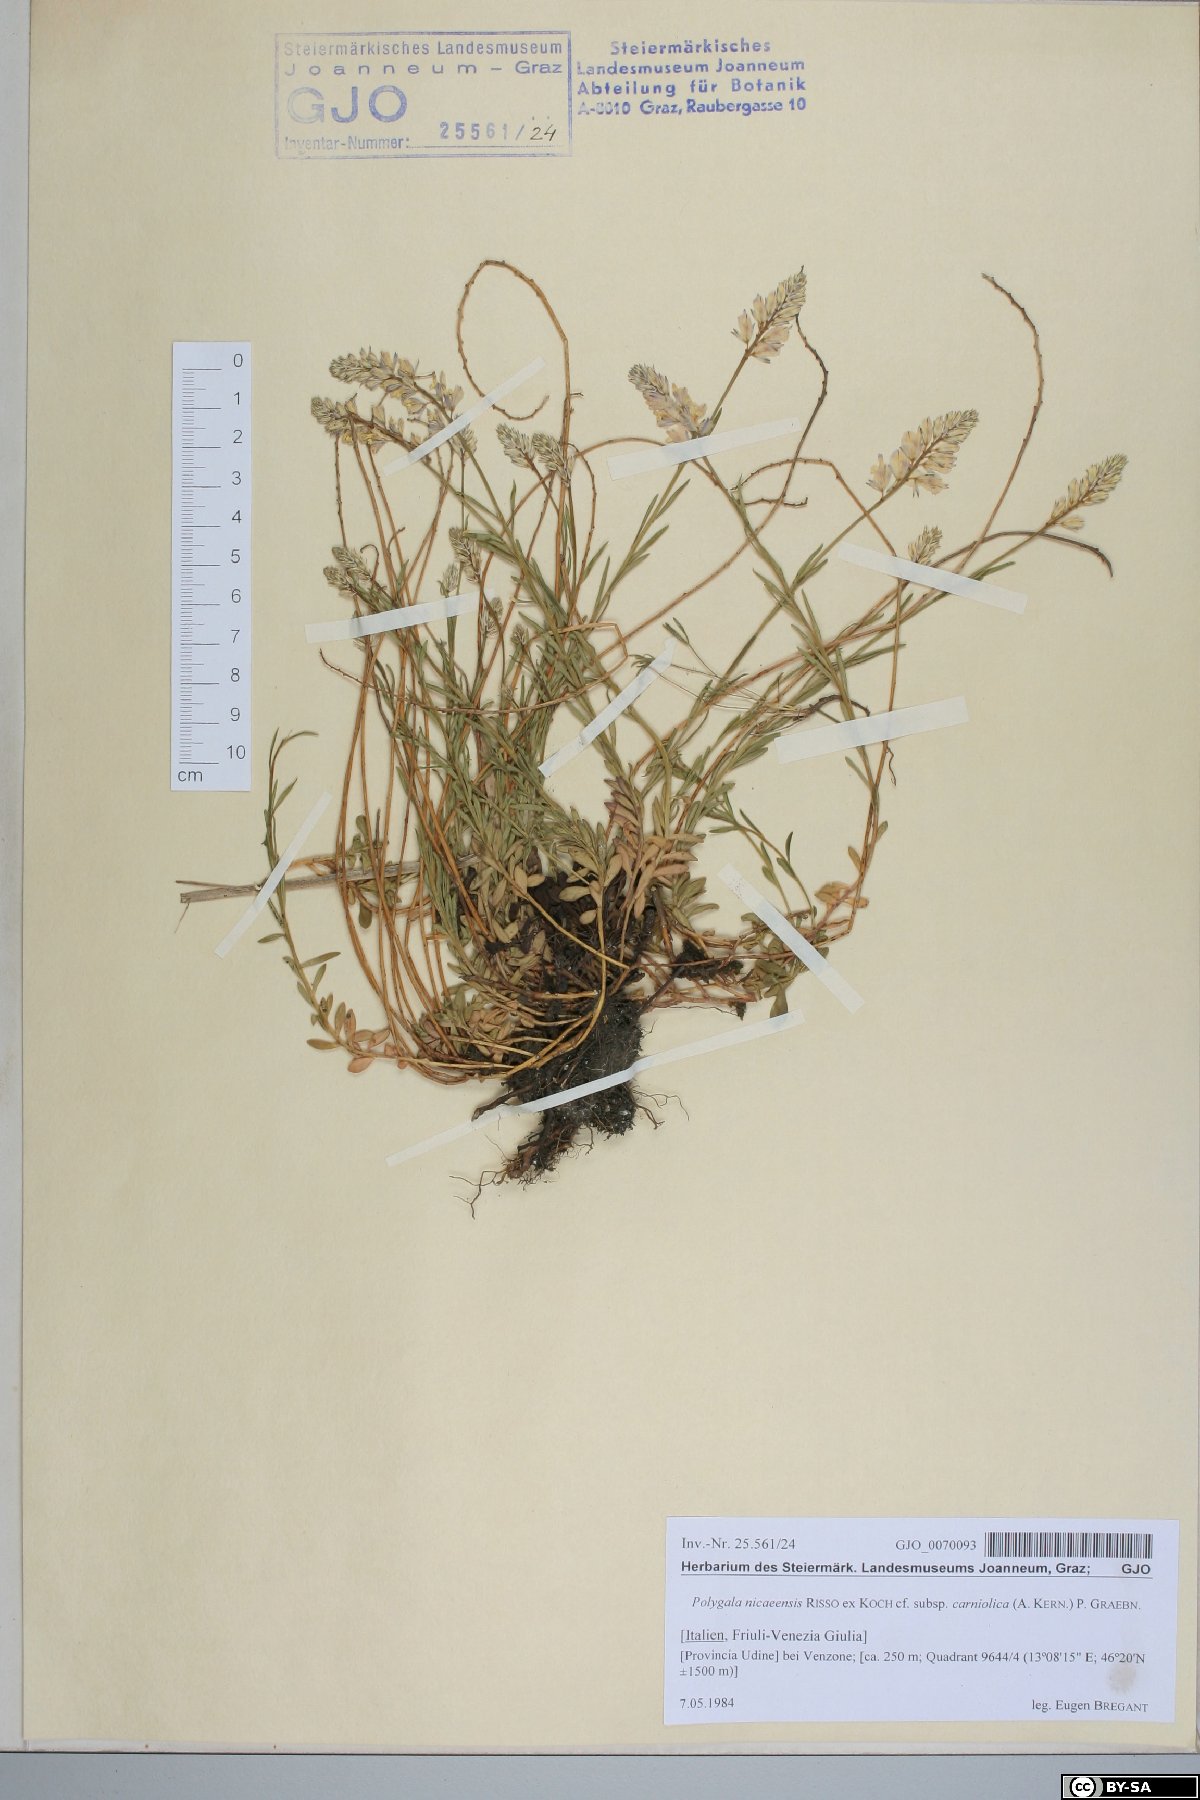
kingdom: Plantae
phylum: Tracheophyta
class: Magnoliopsida
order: Fabales
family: Polygalaceae
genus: Polygala
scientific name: Polygala
